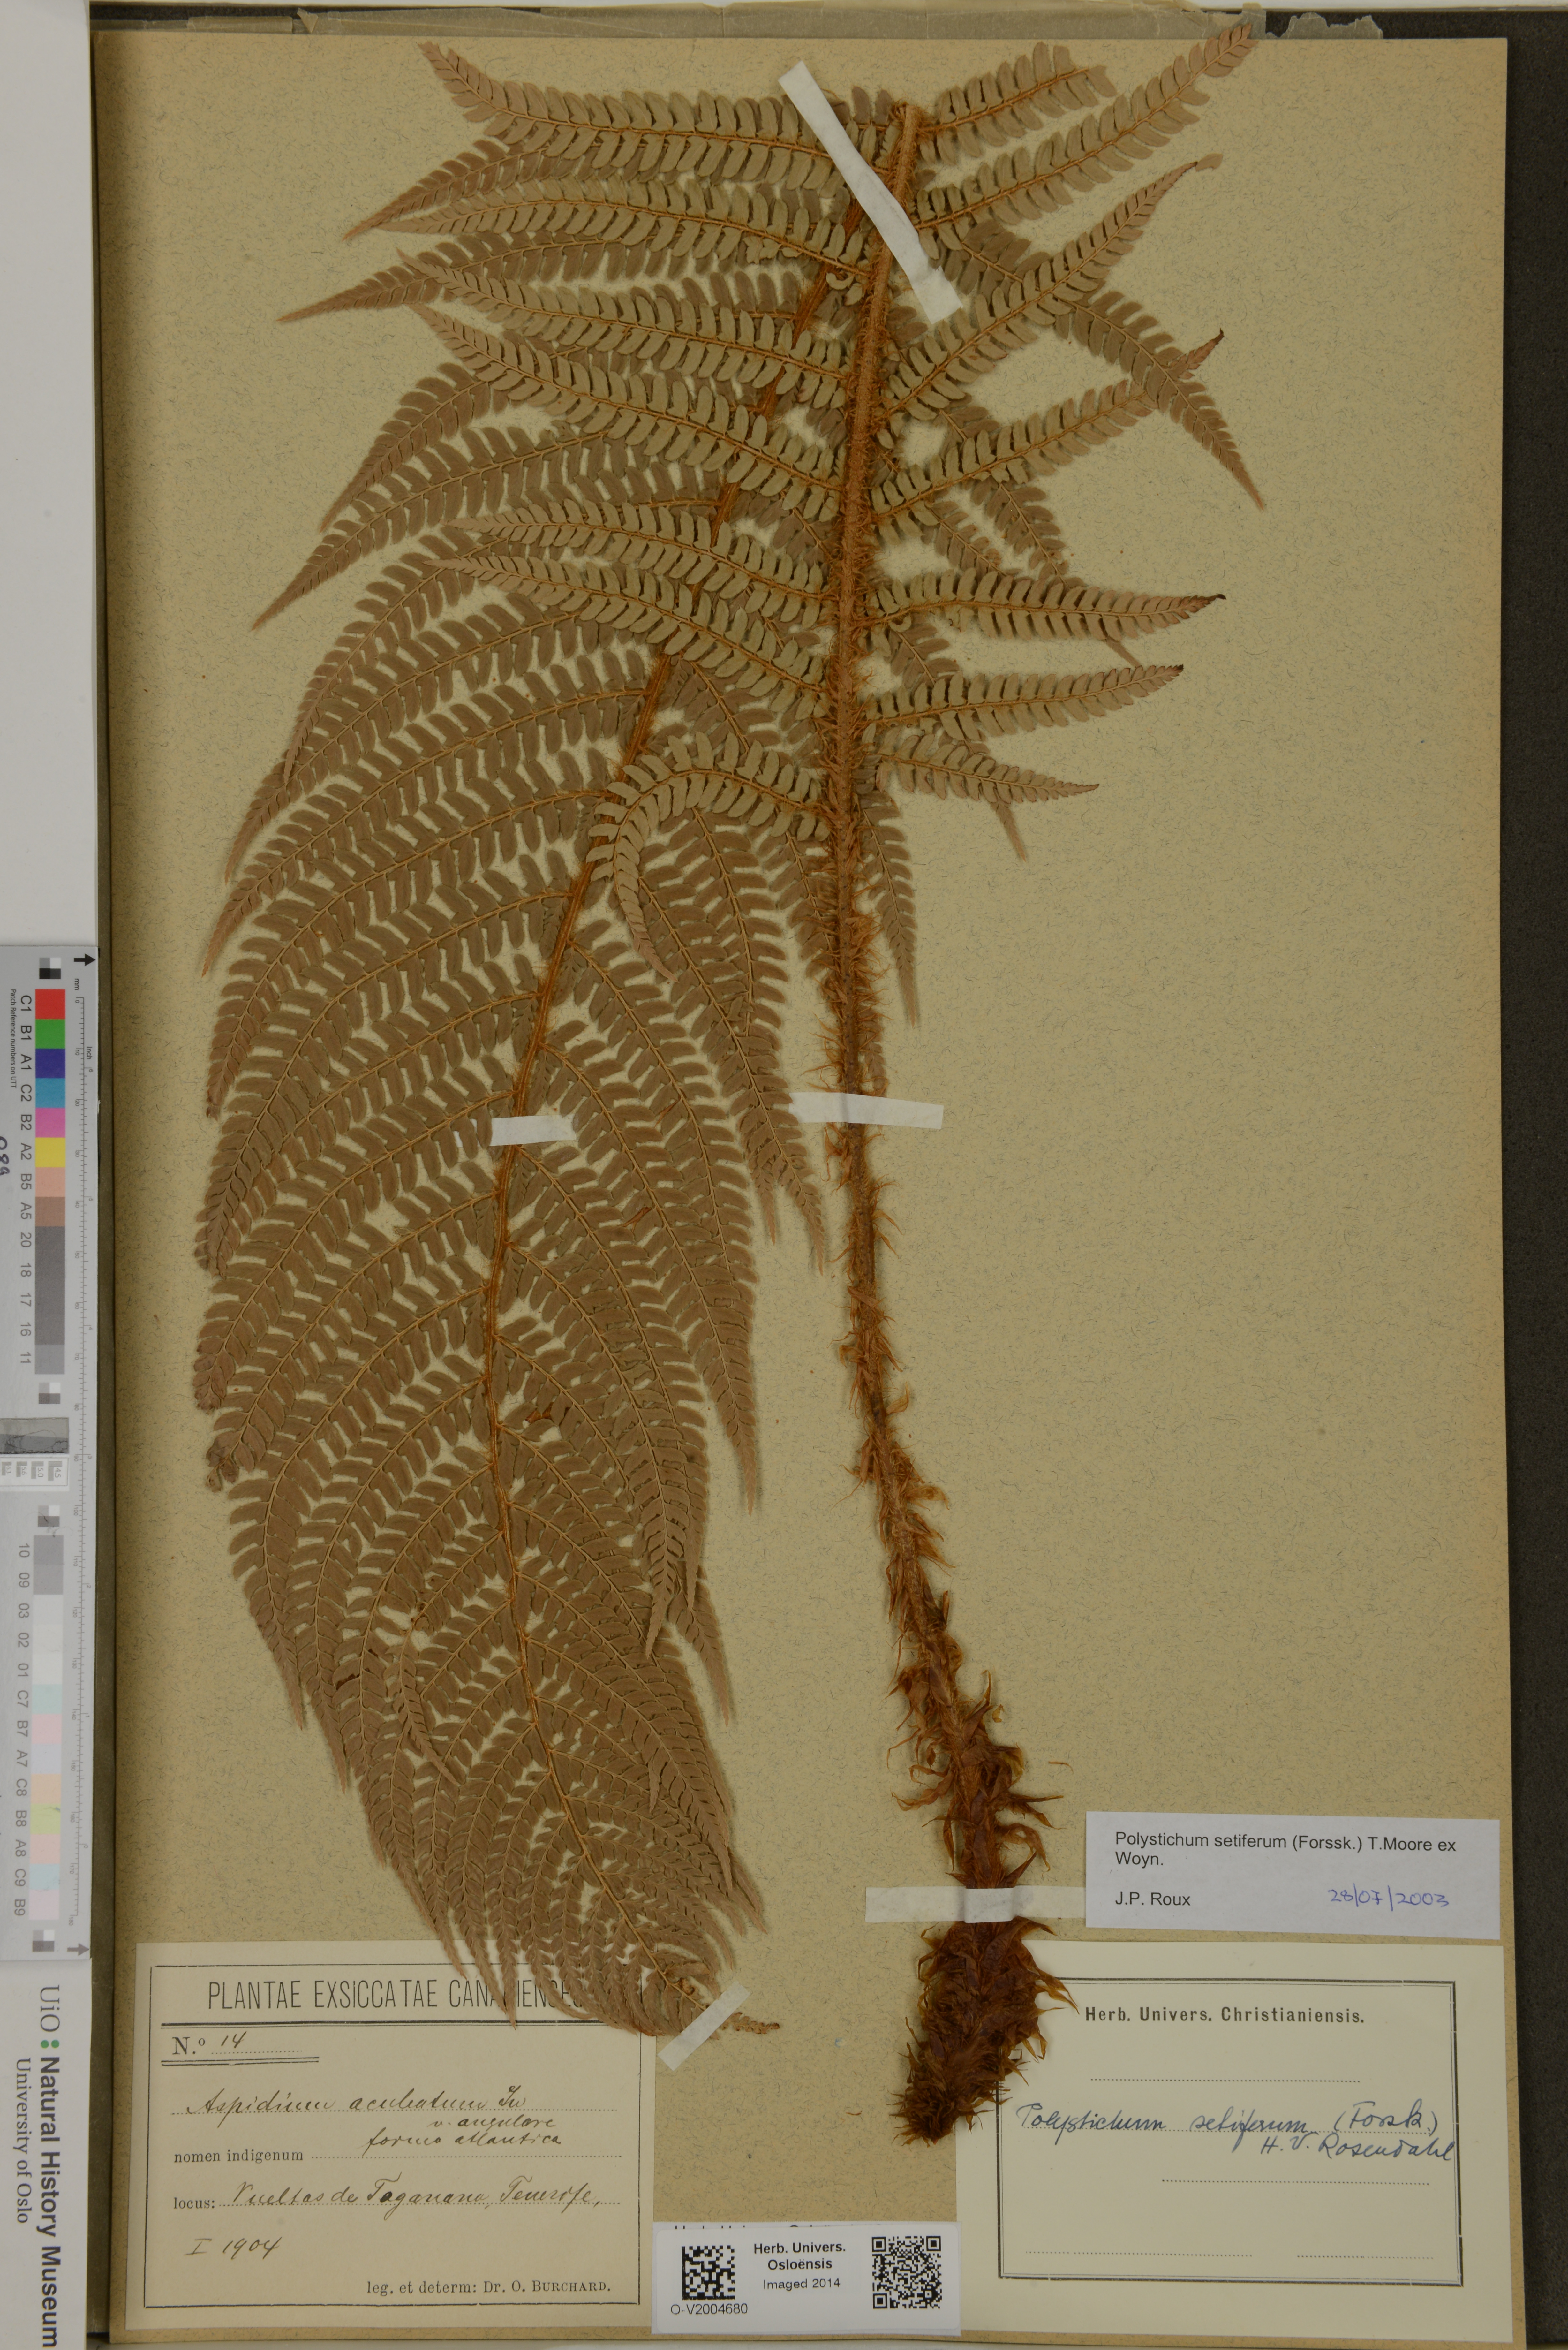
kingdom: Plantae
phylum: Tracheophyta
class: Polypodiopsida
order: Polypodiales
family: Dryopteridaceae
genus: Polystichum
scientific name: Polystichum setiferum
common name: Soft shield-fern
